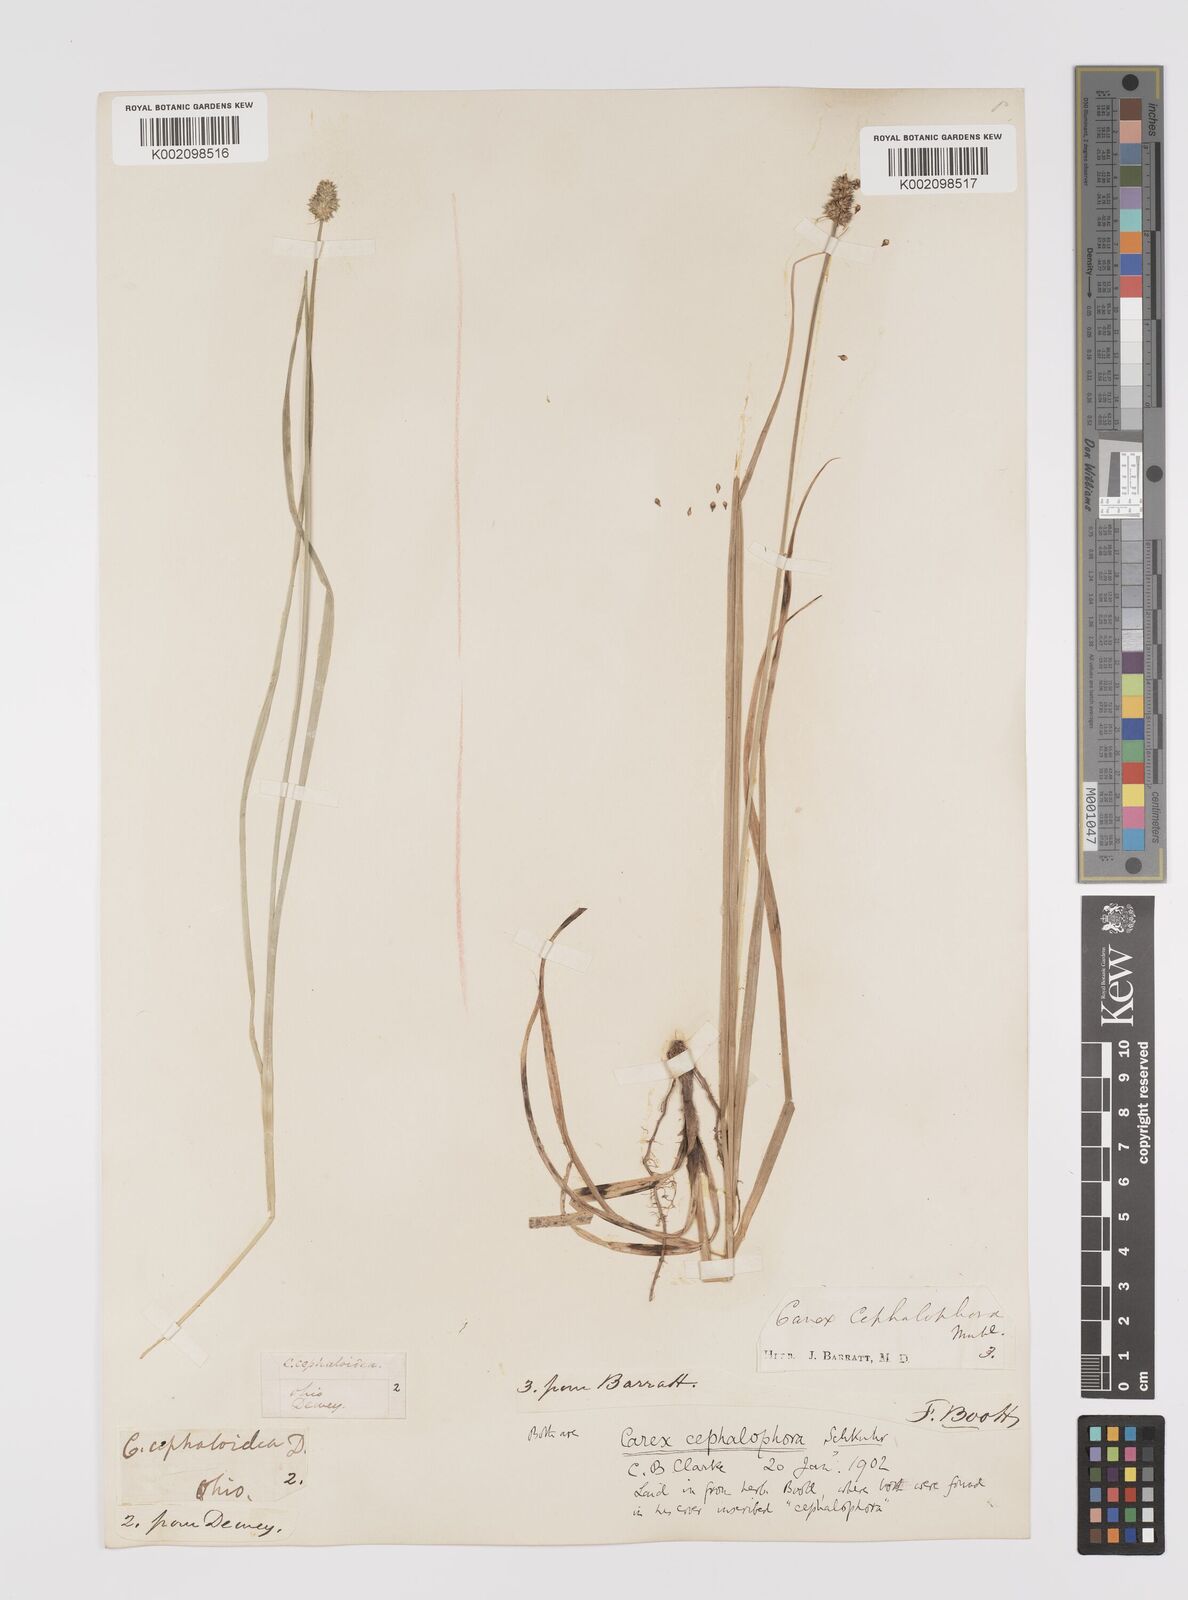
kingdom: Plantae
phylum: Tracheophyta
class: Liliopsida
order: Poales
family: Cyperaceae
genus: Carex
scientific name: Carex cephalophora
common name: Oval-headed sedge
